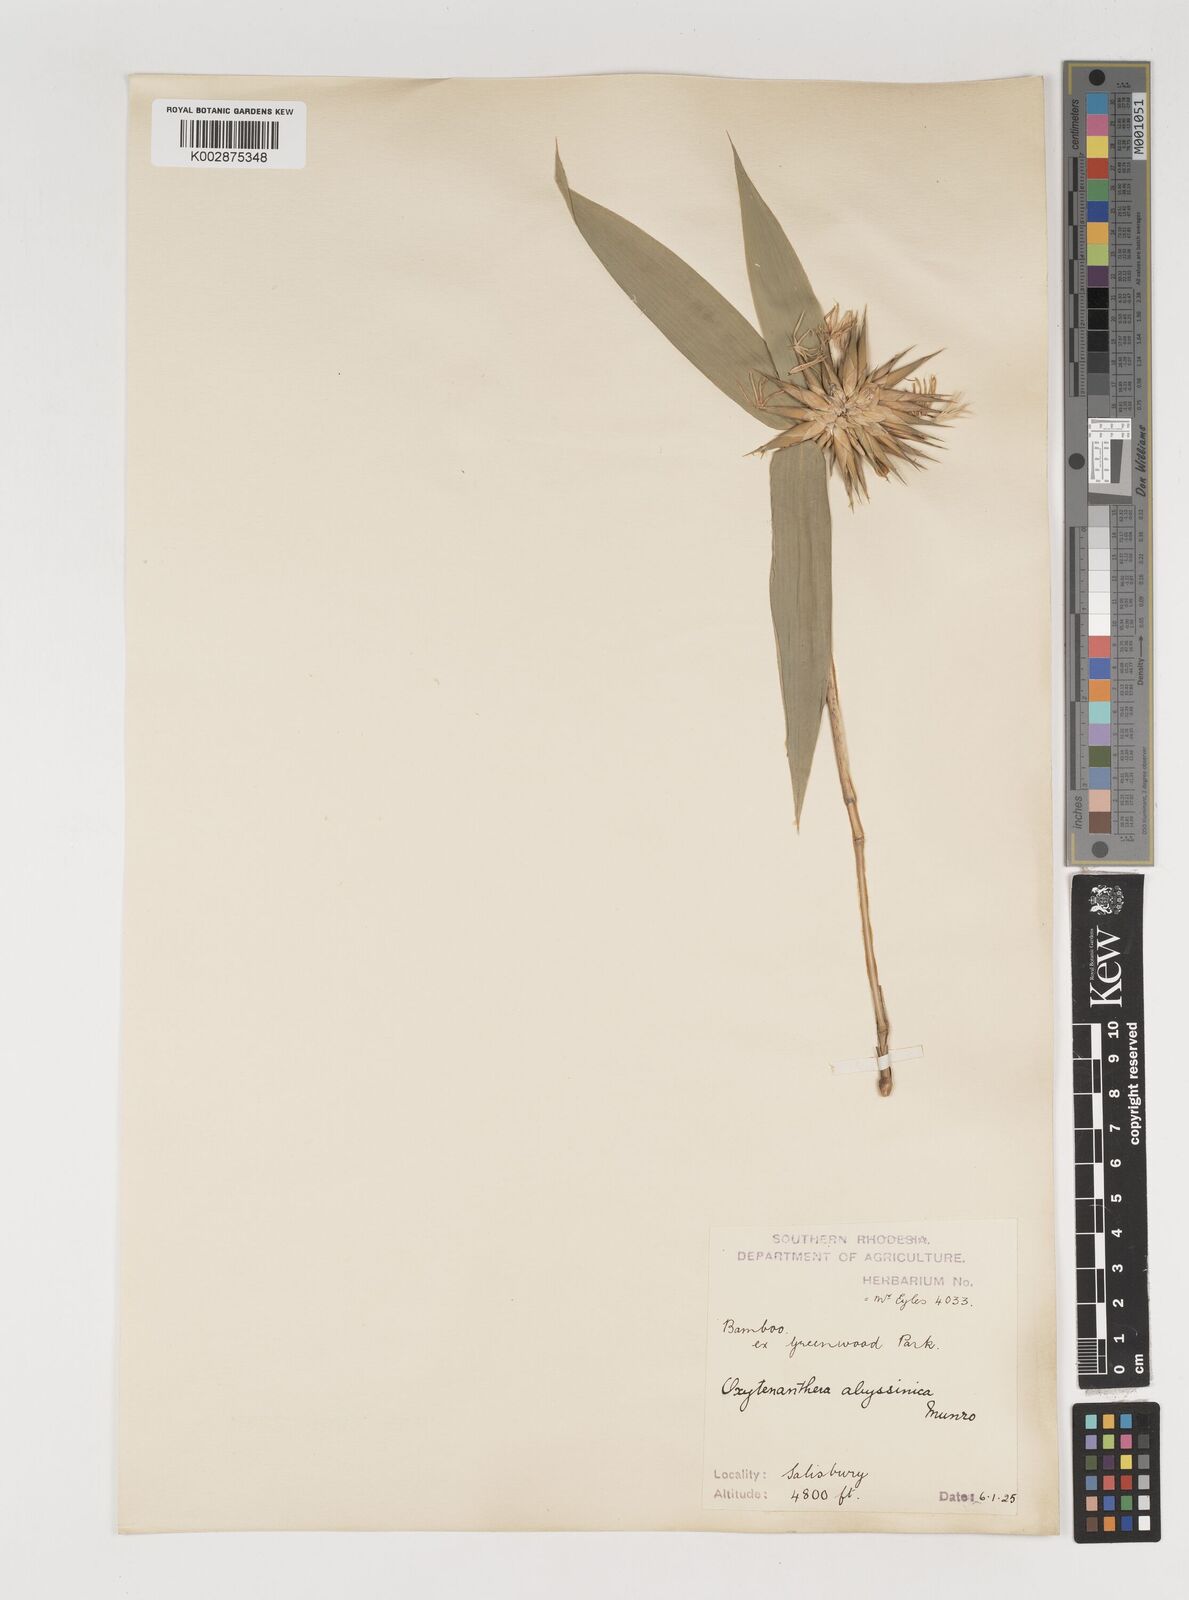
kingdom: Plantae
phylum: Tracheophyta
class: Liliopsida
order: Poales
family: Poaceae
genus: Oxytenanthera
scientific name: Oxytenanthera abyssinica
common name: Wine bamboo
